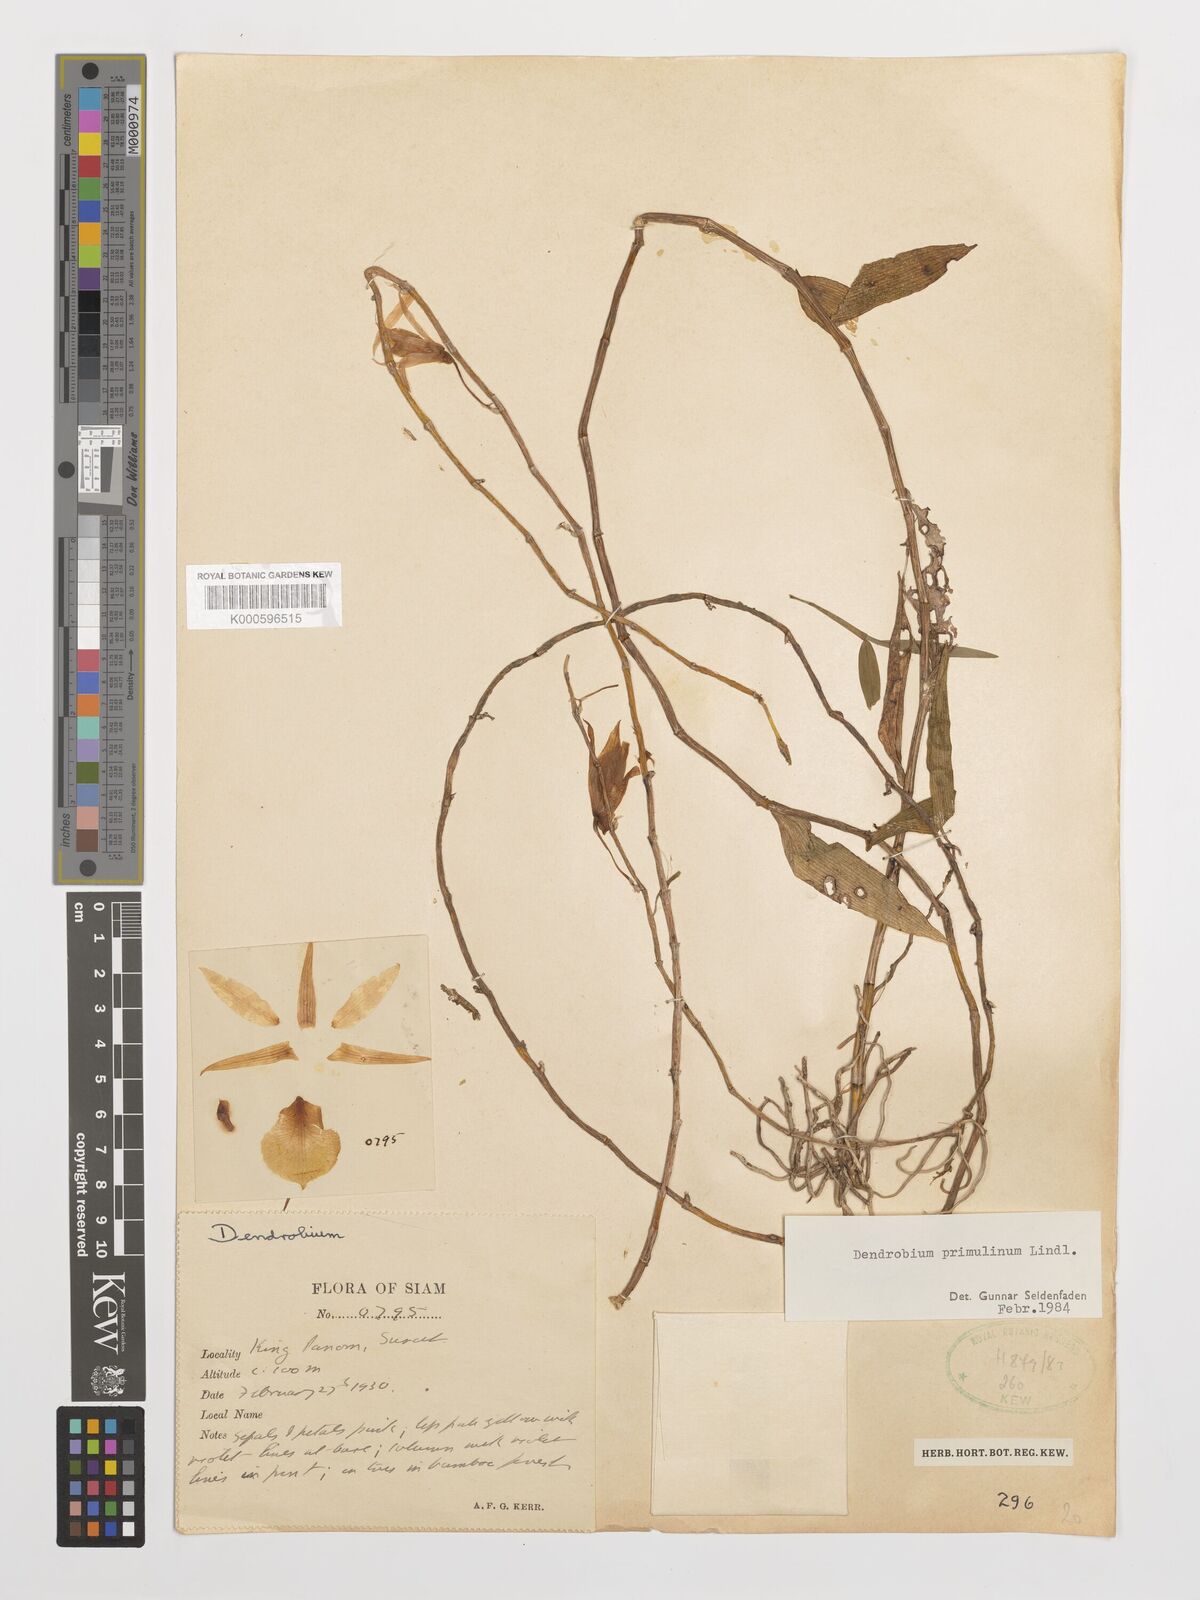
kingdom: Plantae
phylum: Tracheophyta
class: Liliopsida
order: Asparagales
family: Orchidaceae
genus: Dendrobium
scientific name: Dendrobium polyanthum
